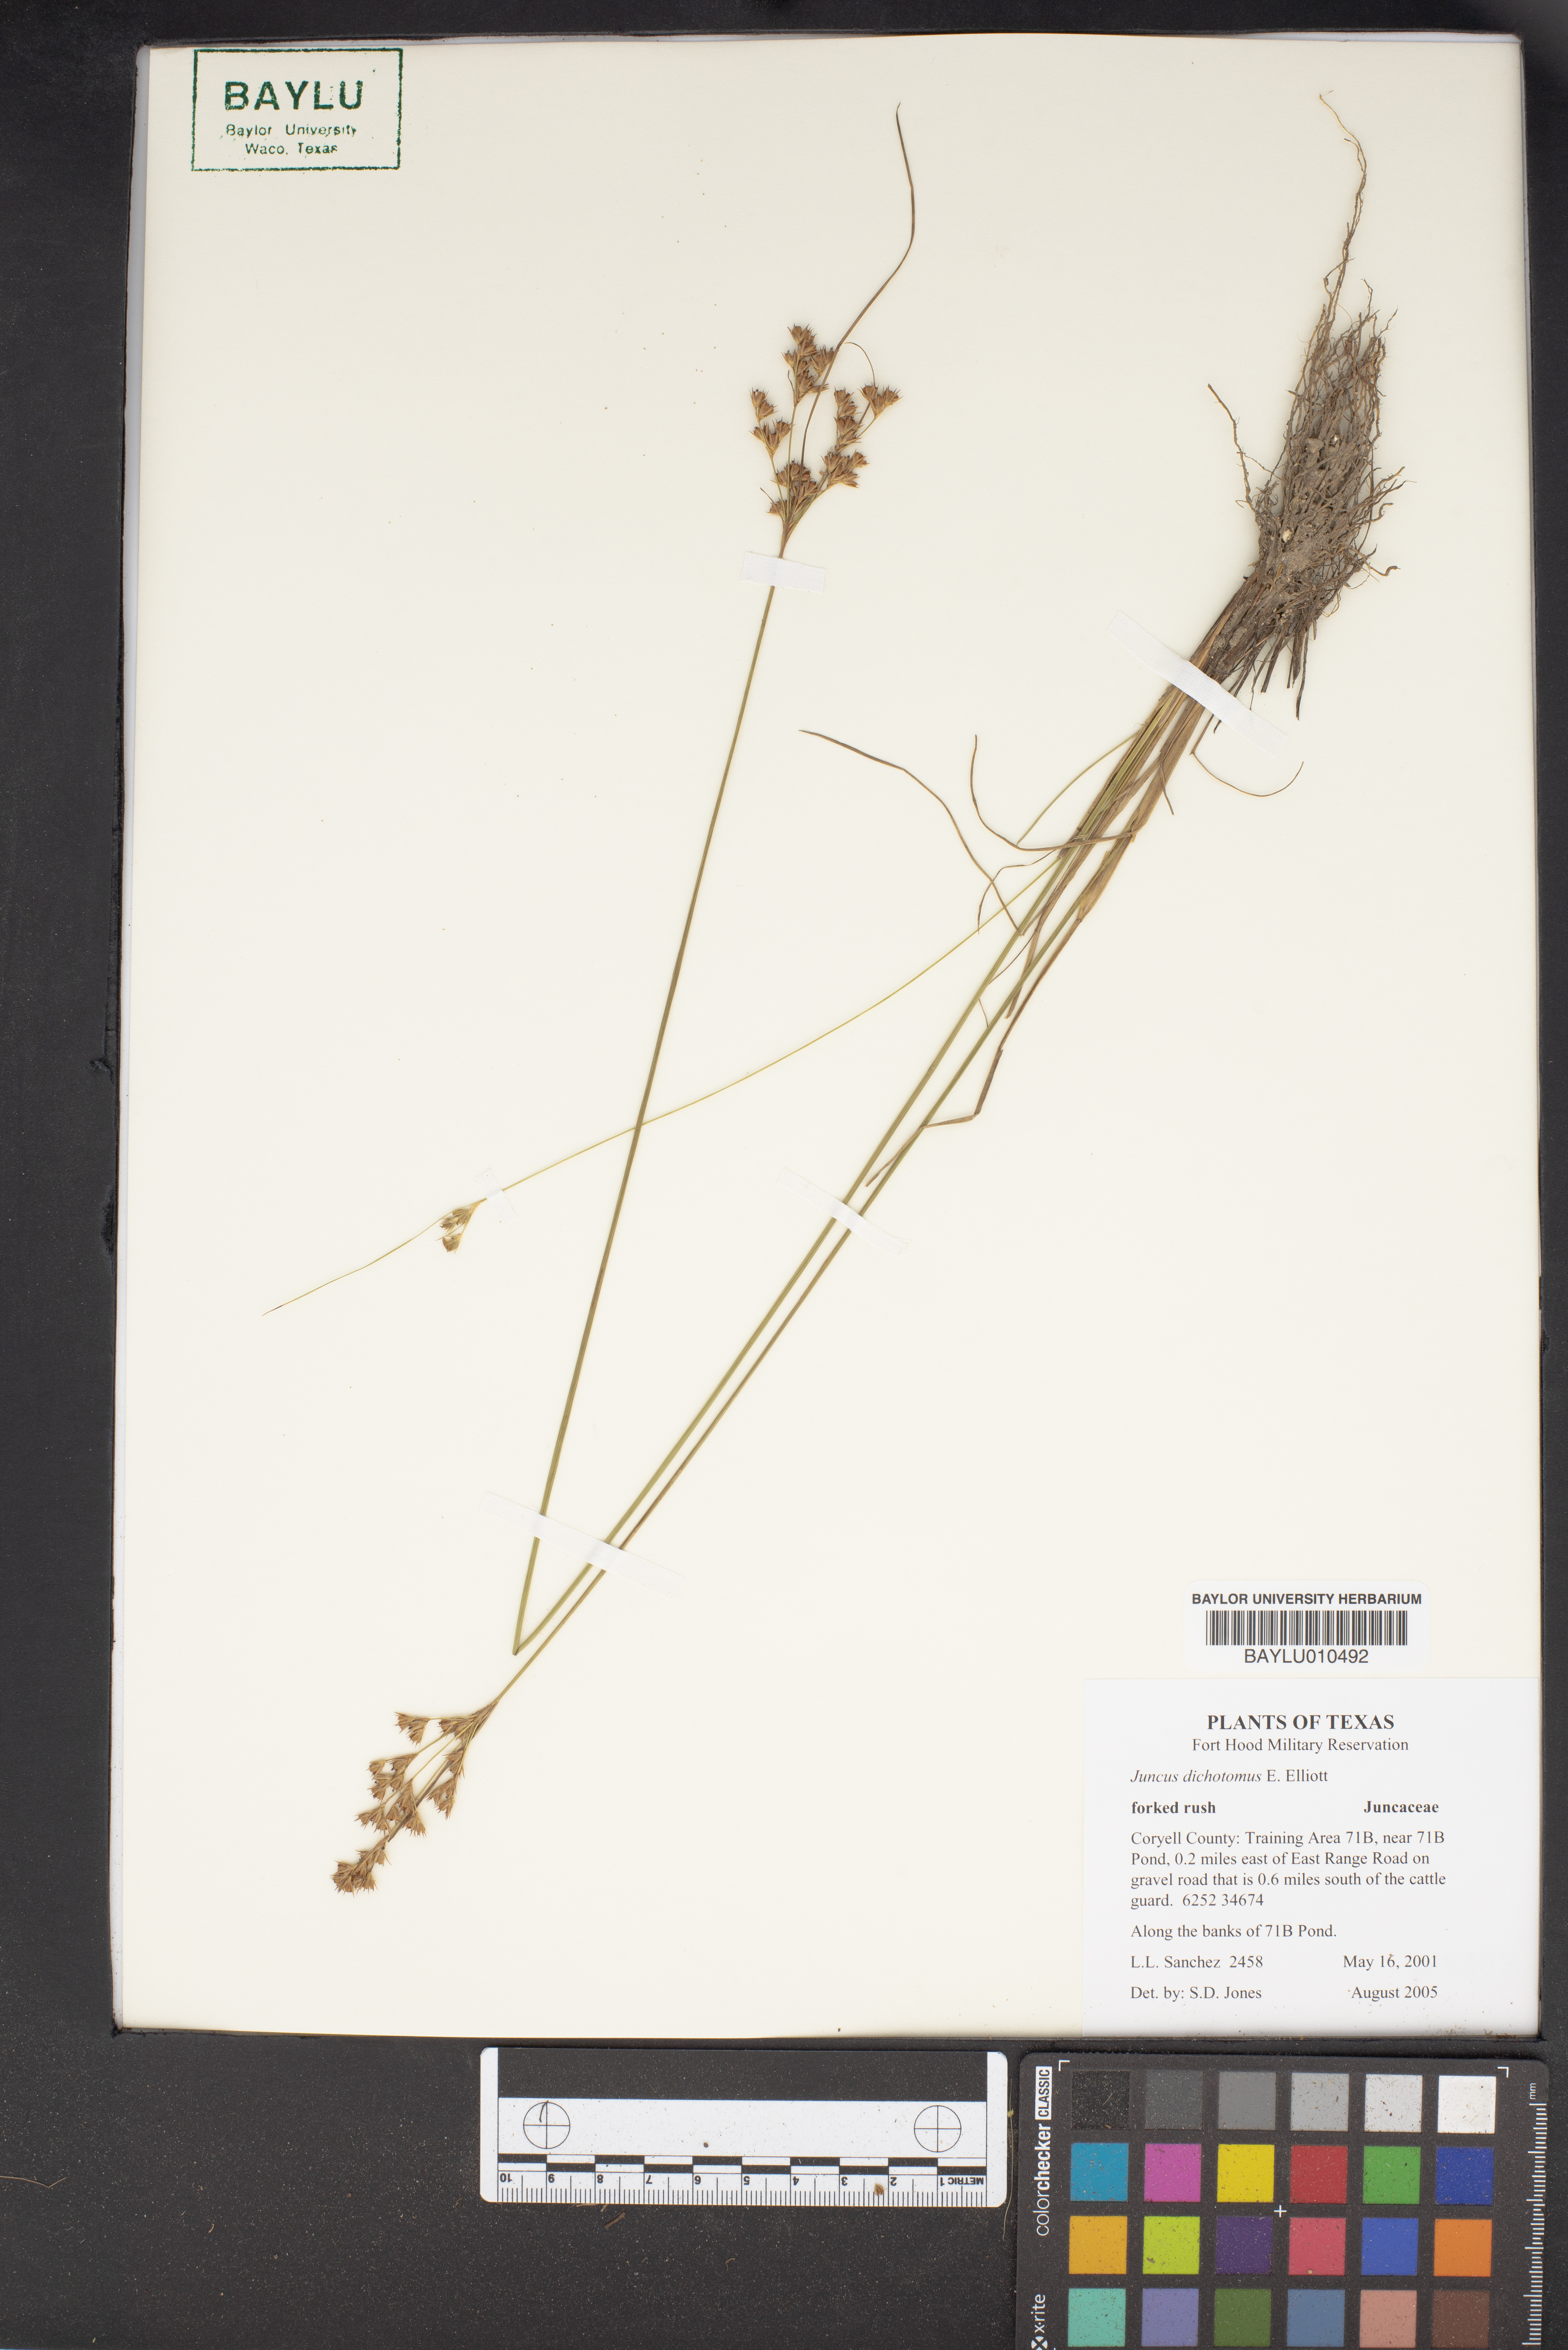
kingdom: Plantae
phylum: Tracheophyta
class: Liliopsida
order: Poales
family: Juncaceae
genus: Juncus
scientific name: Juncus dichotomus
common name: Forked rush
